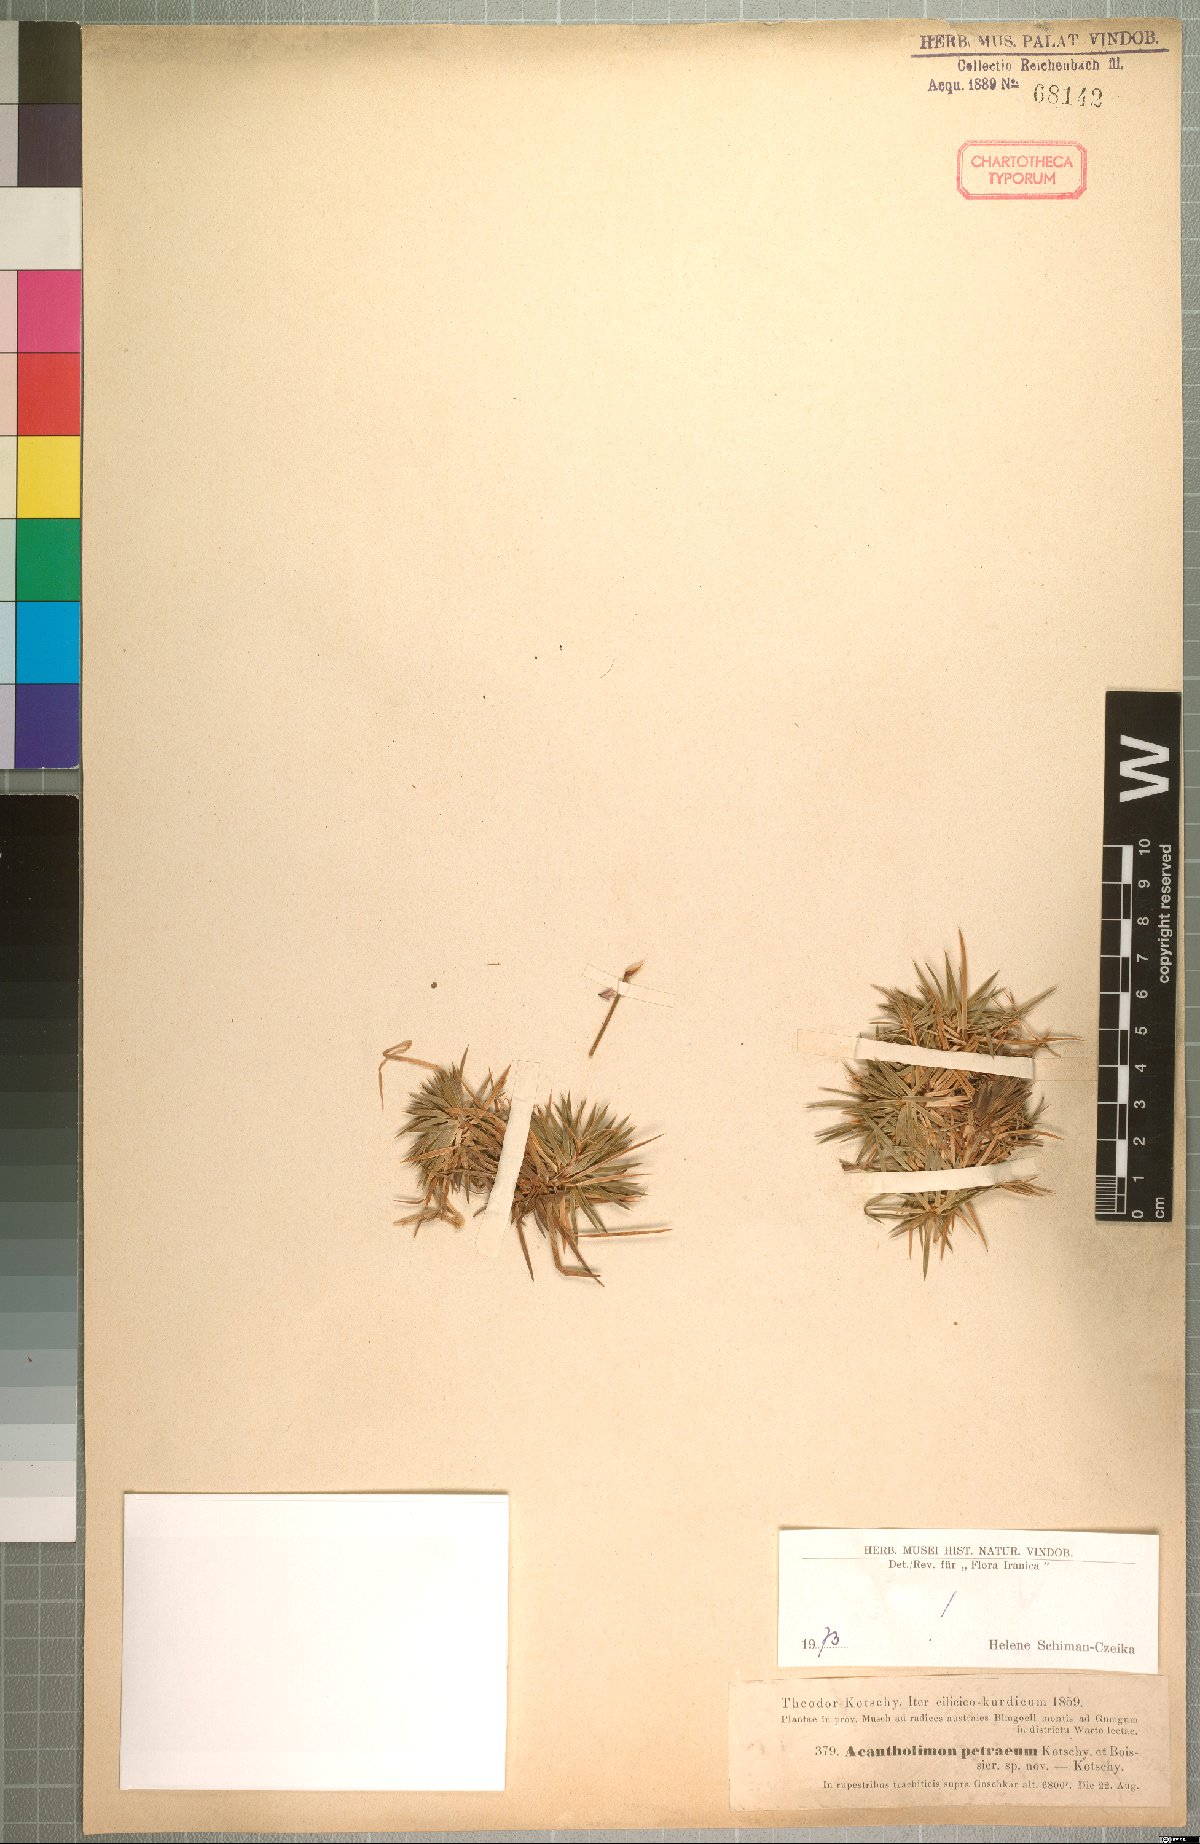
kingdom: Plantae
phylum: Tracheophyta
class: Magnoliopsida
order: Caryophyllales
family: Plumbaginaceae
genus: Acantholimon
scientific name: Acantholimon petraeum
